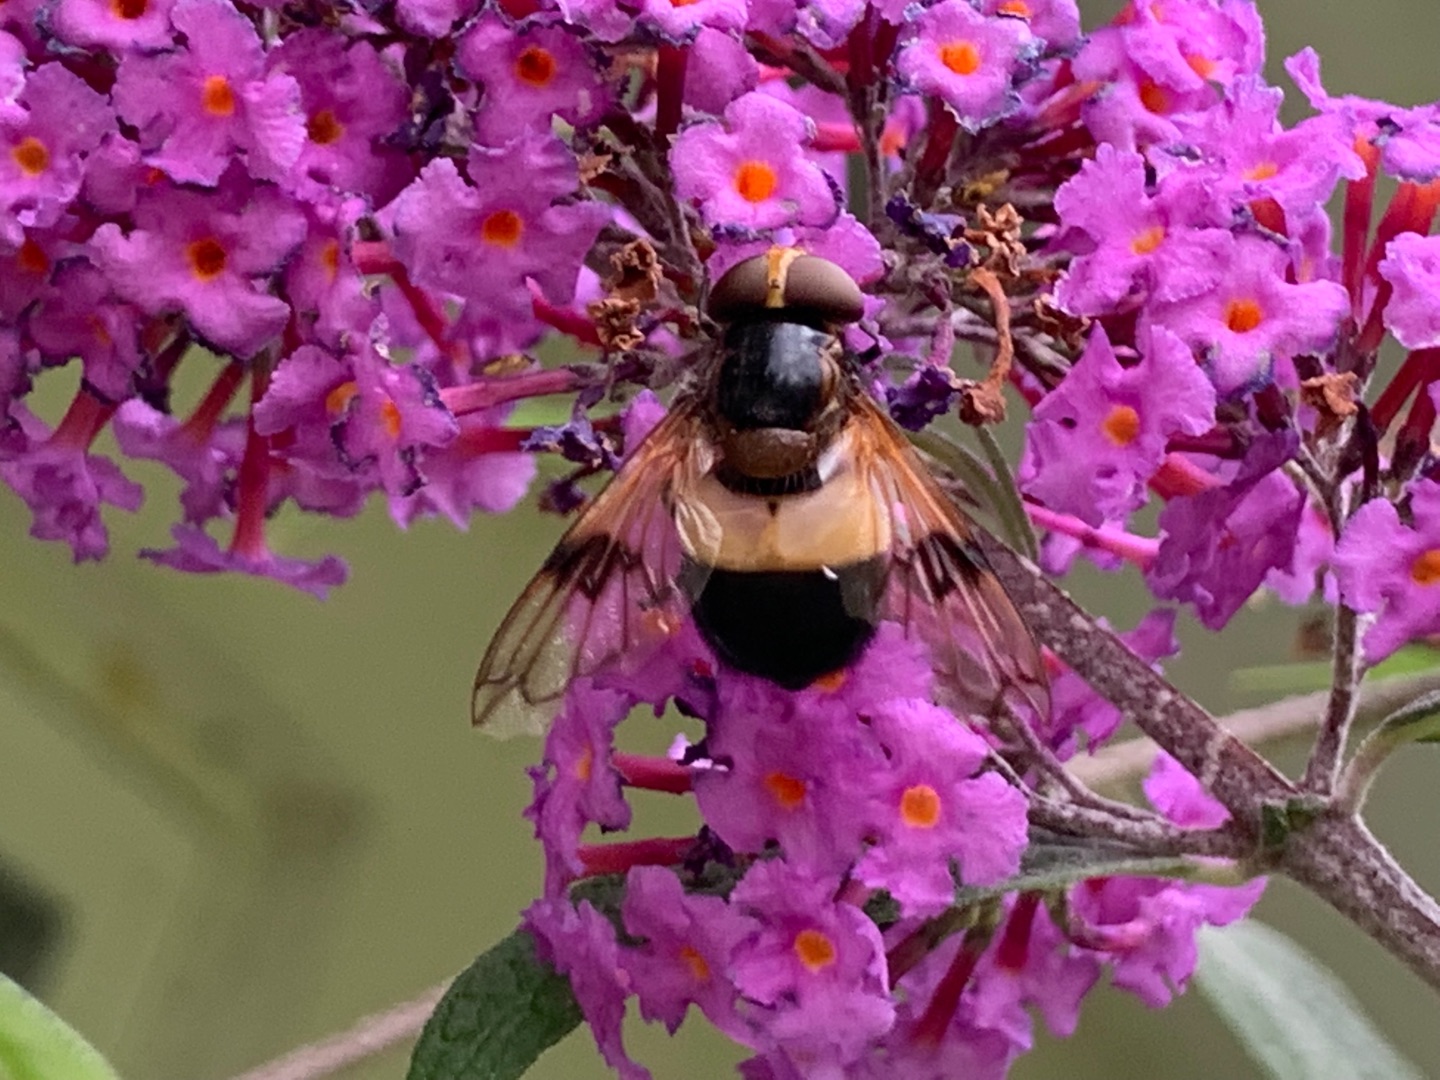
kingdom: Animalia
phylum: Arthropoda
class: Insecta
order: Diptera
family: Syrphidae
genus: Volucella
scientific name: Volucella pellucens
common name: Hvidbåndet humlesvirreflue
